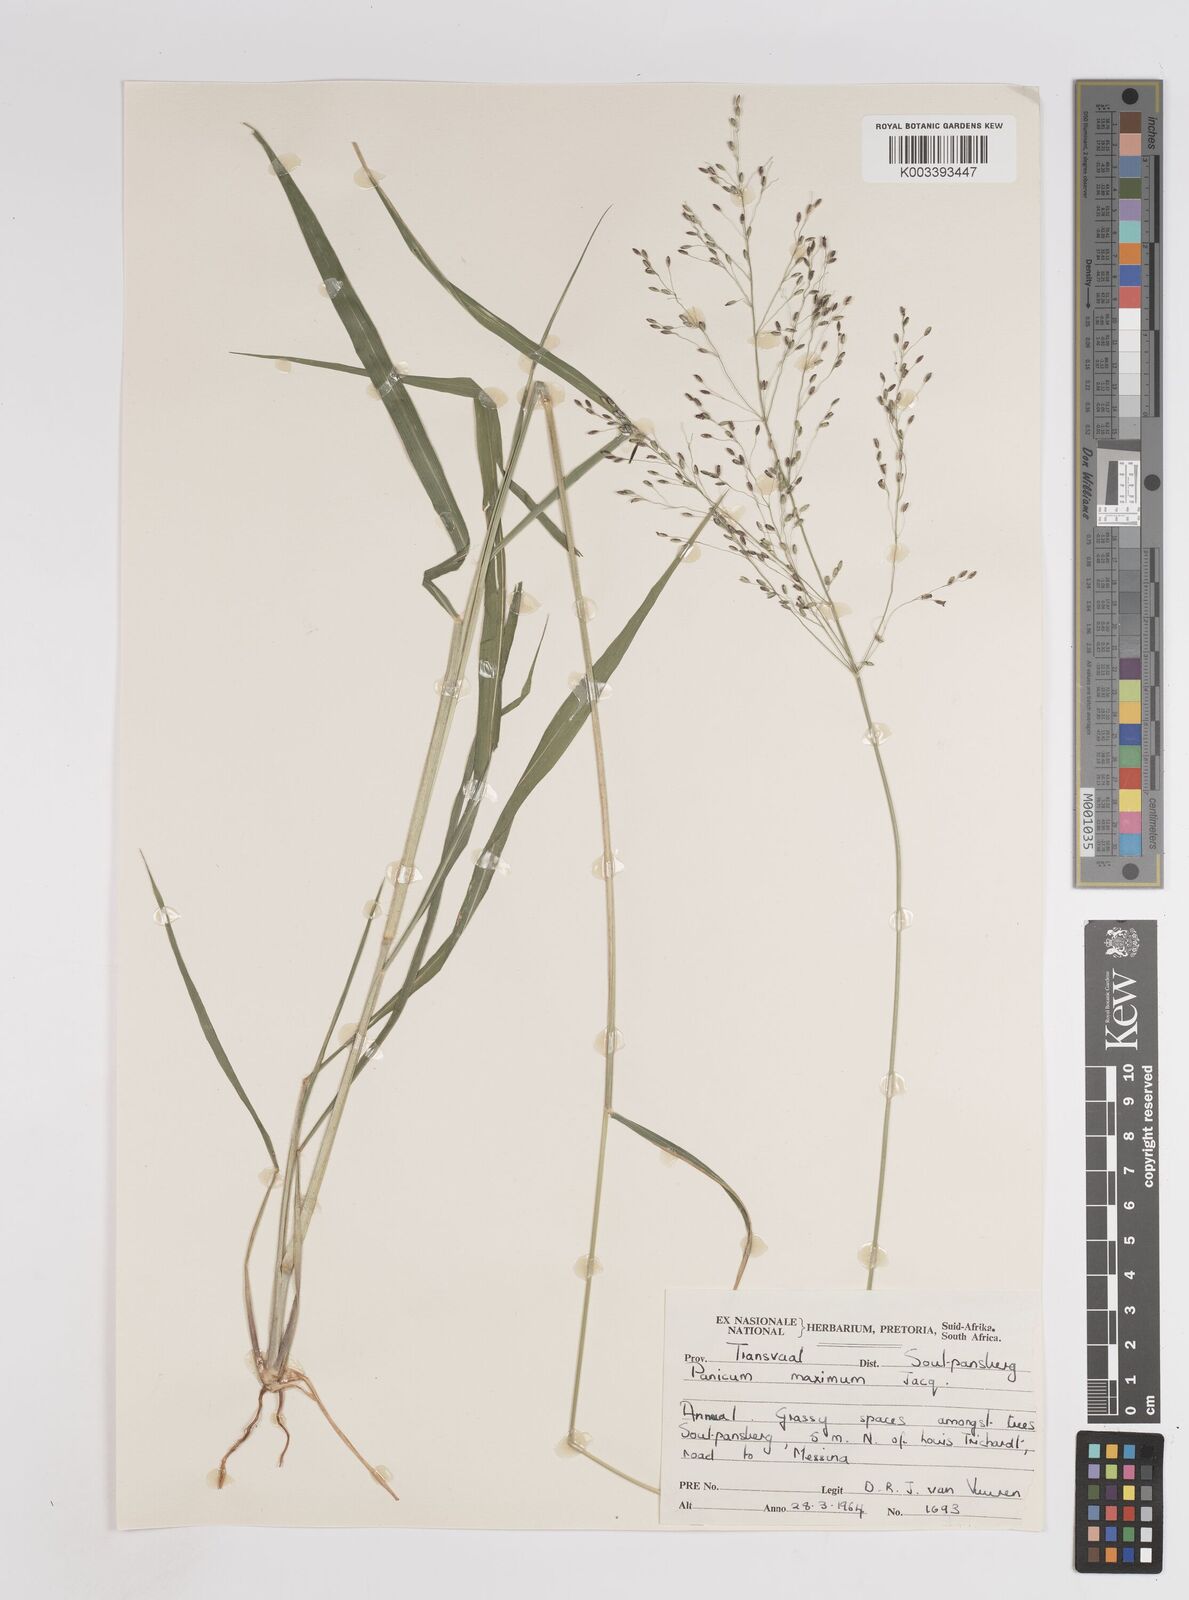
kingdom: Plantae
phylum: Tracheophyta
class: Liliopsida
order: Poales
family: Poaceae
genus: Megathyrsus
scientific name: Megathyrsus maximus
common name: Guineagrass
